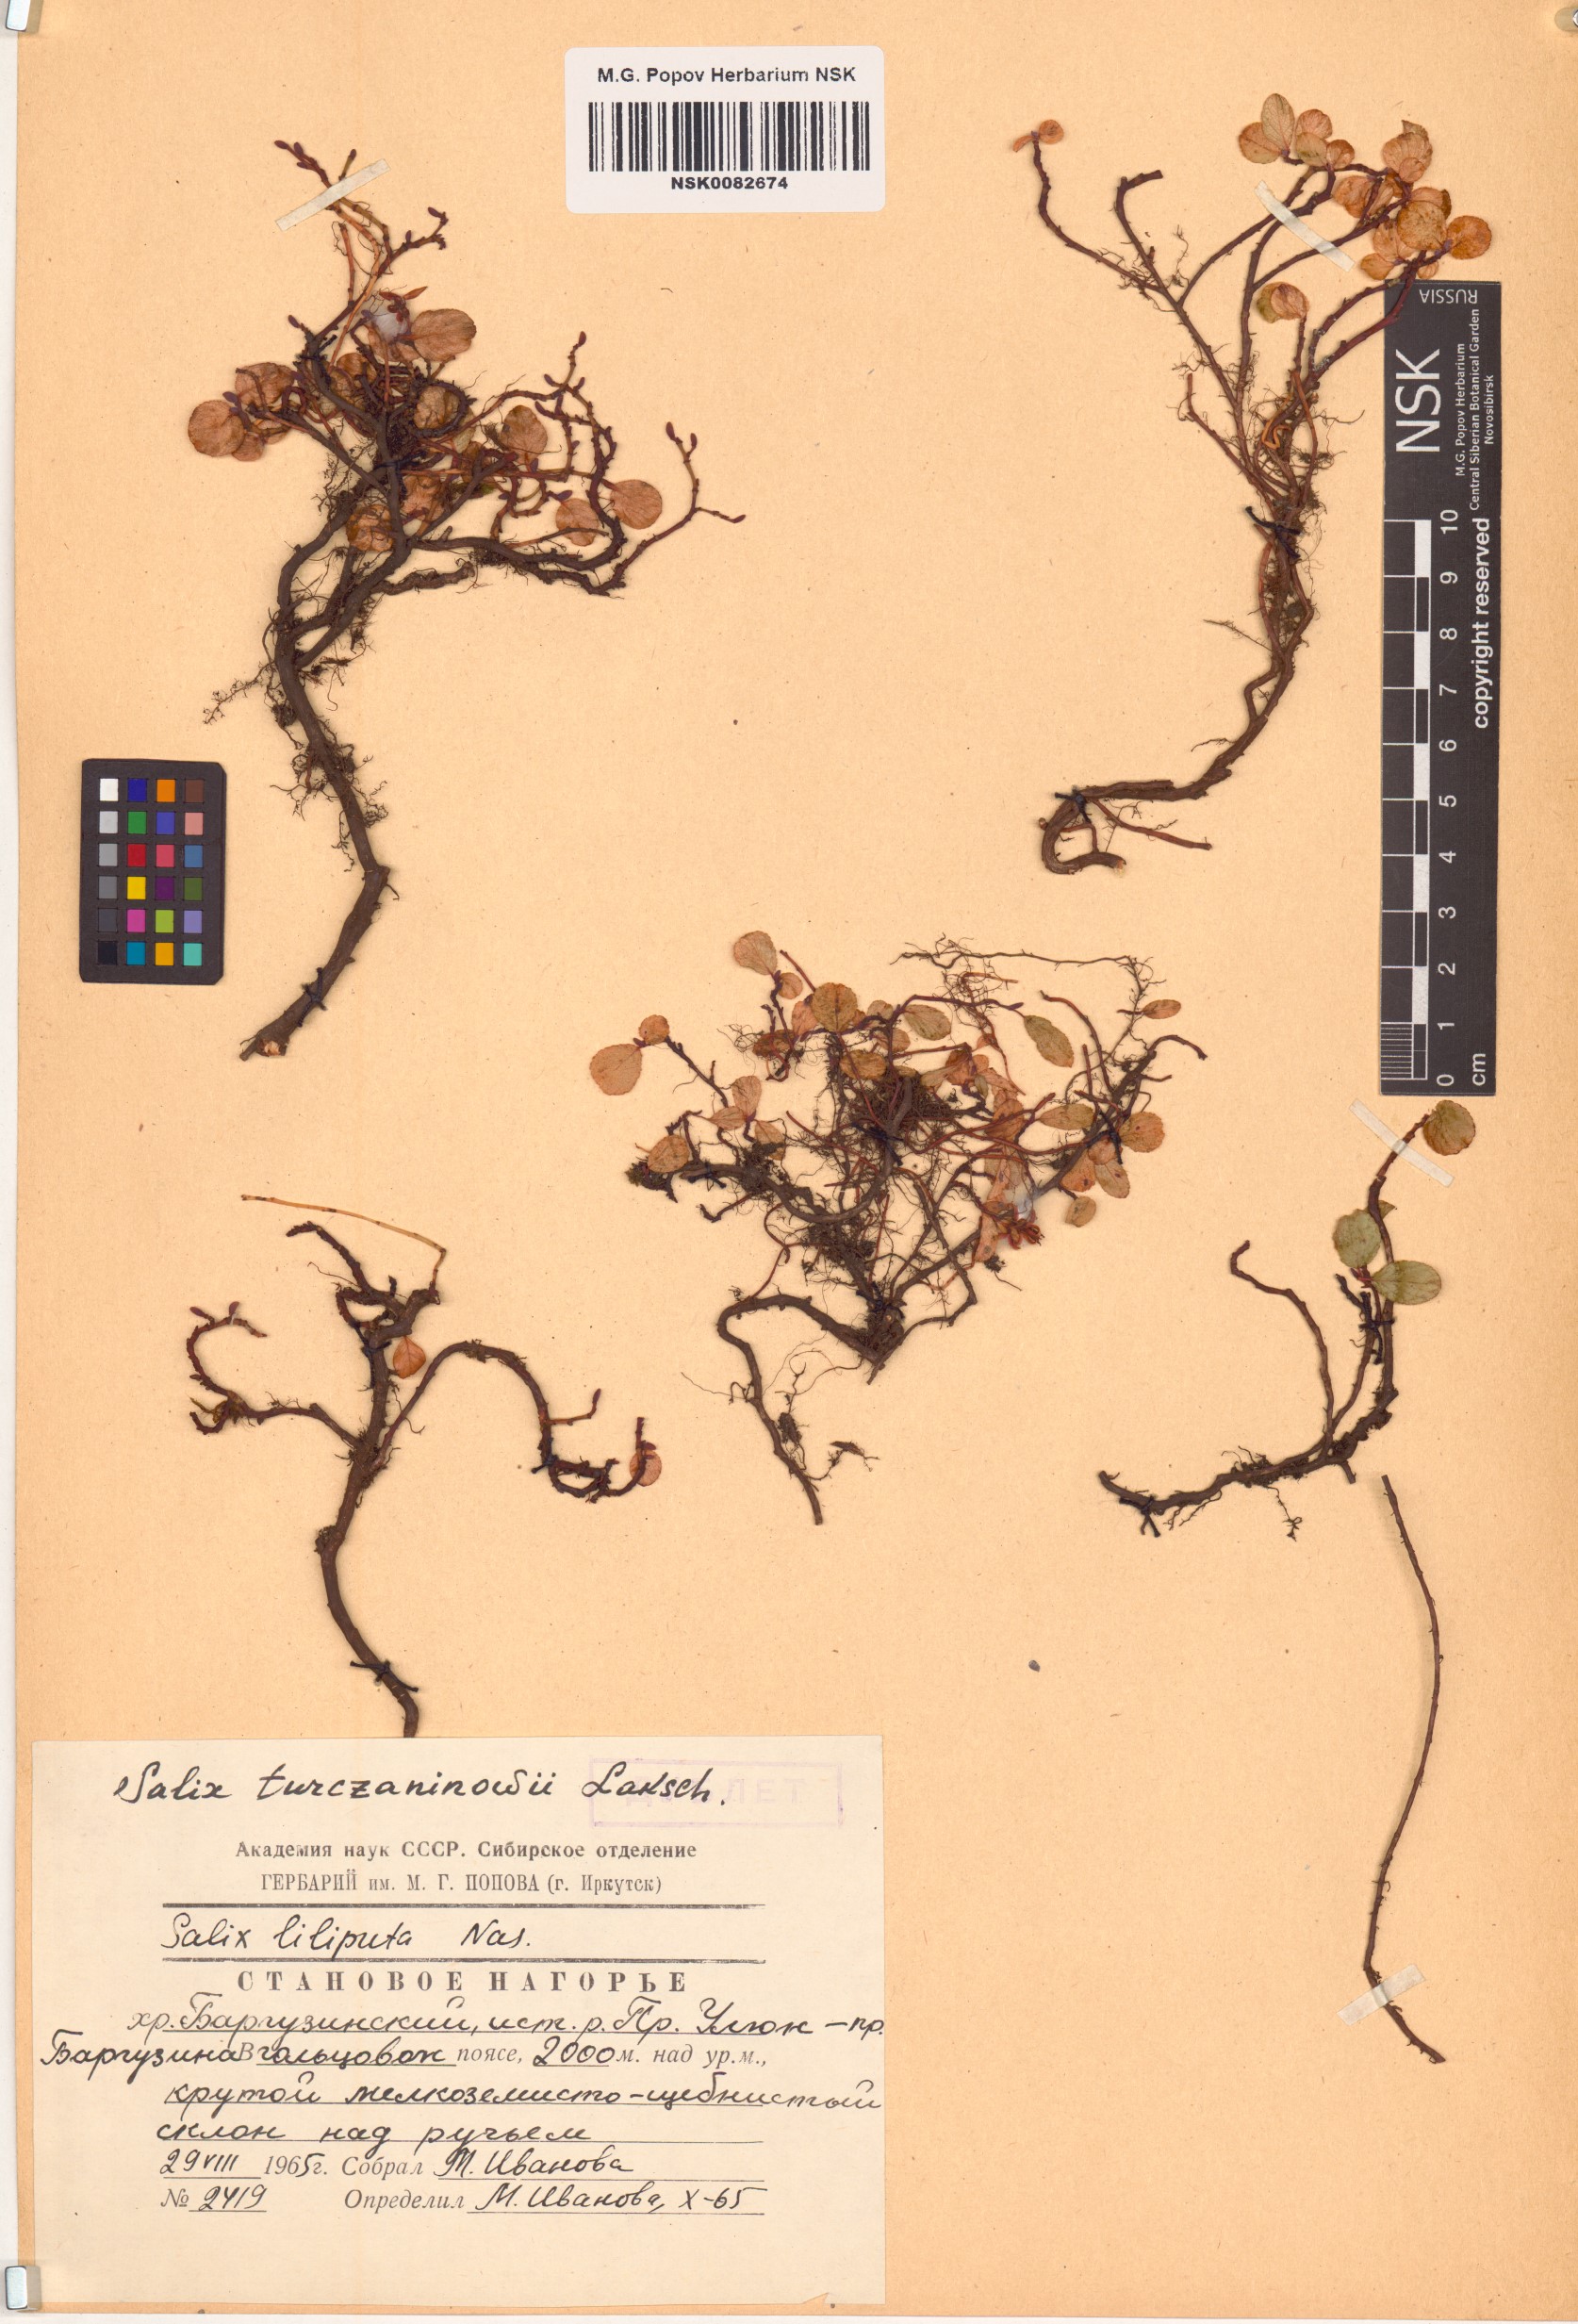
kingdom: Plantae
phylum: Tracheophyta
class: Magnoliopsida
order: Malpighiales
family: Salicaceae
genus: Salix
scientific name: Salix turczaninowii
